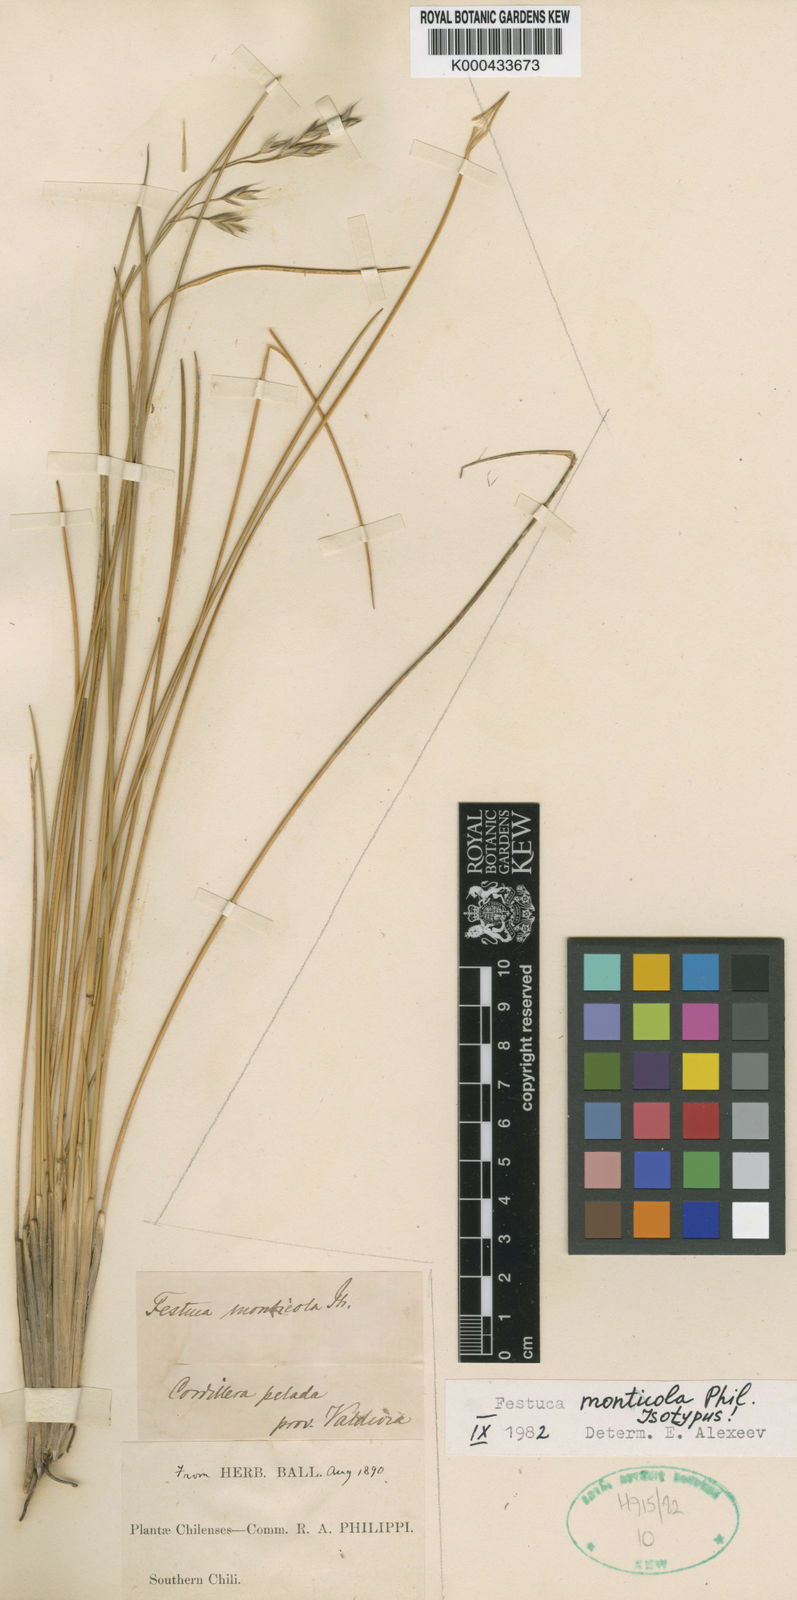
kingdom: Plantae
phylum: Tracheophyta
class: Liliopsida
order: Poales
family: Poaceae
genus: Festuca
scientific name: Festuca monticola
